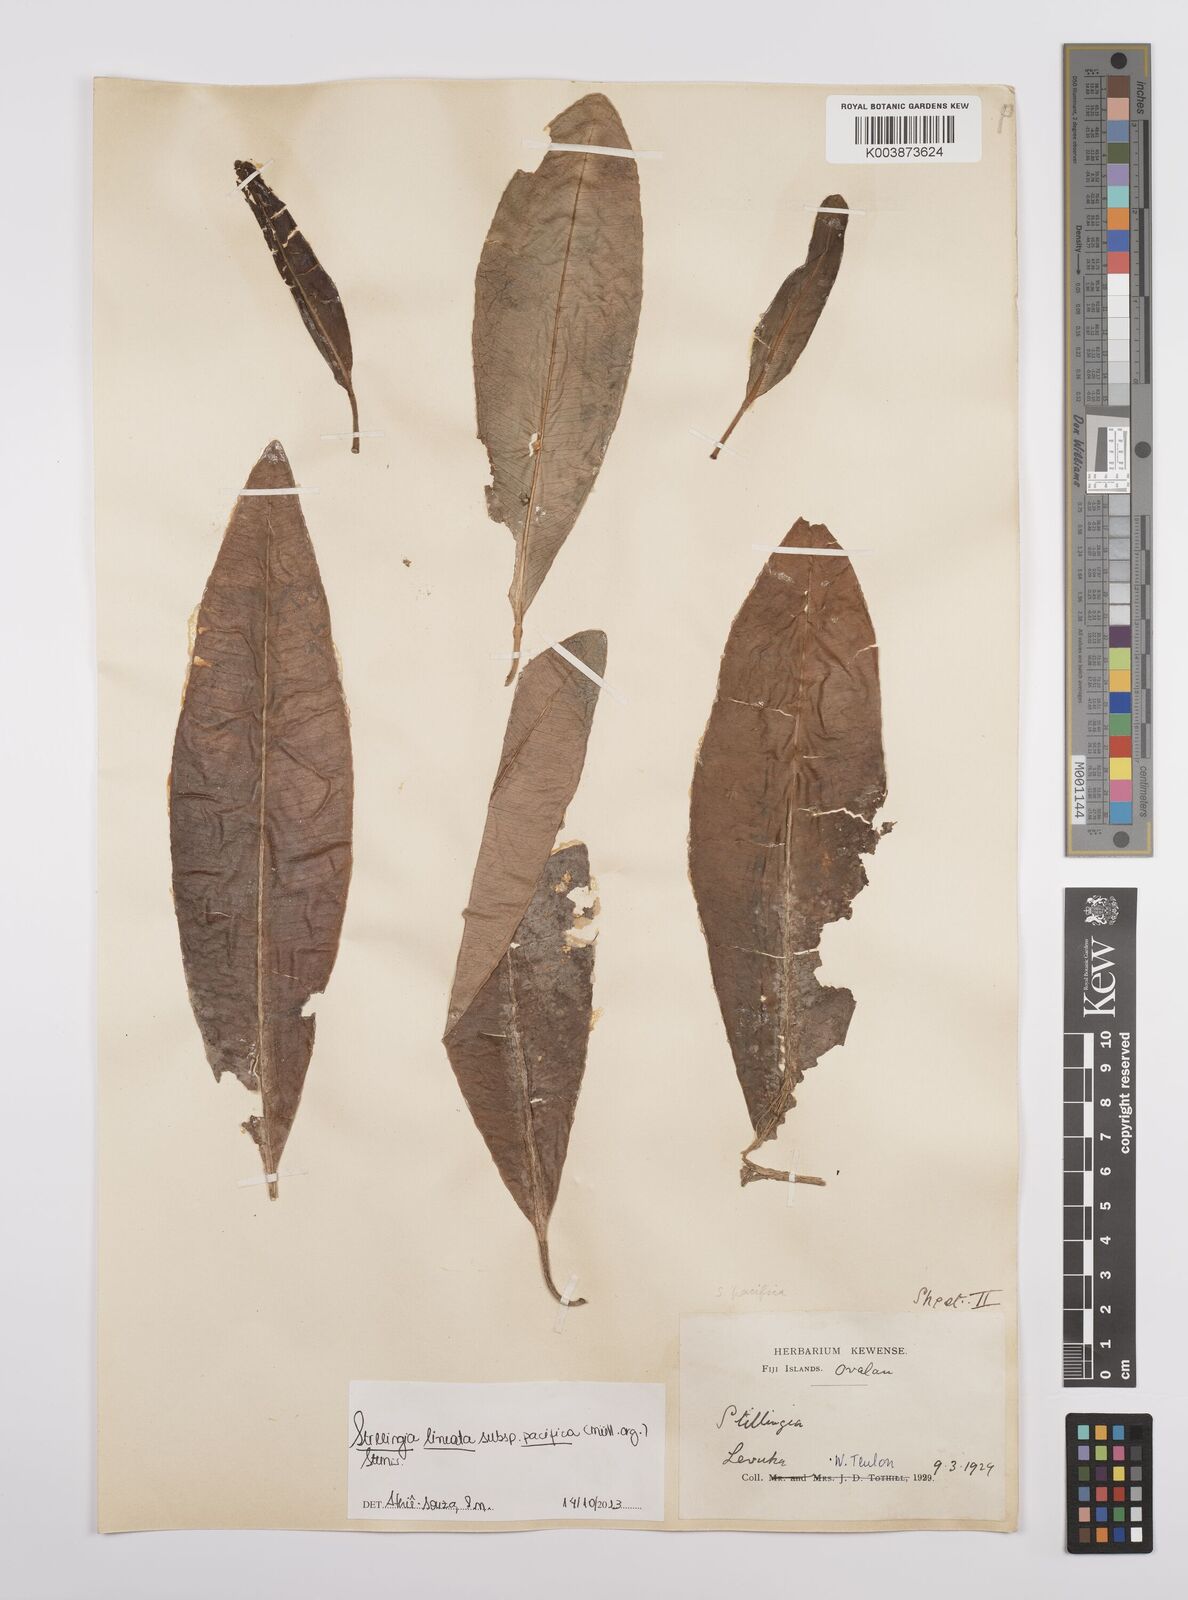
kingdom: Plantae
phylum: Tracheophyta
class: Magnoliopsida
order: Malpighiales
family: Euphorbiaceae
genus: Stillingia
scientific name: Stillingia lineata
